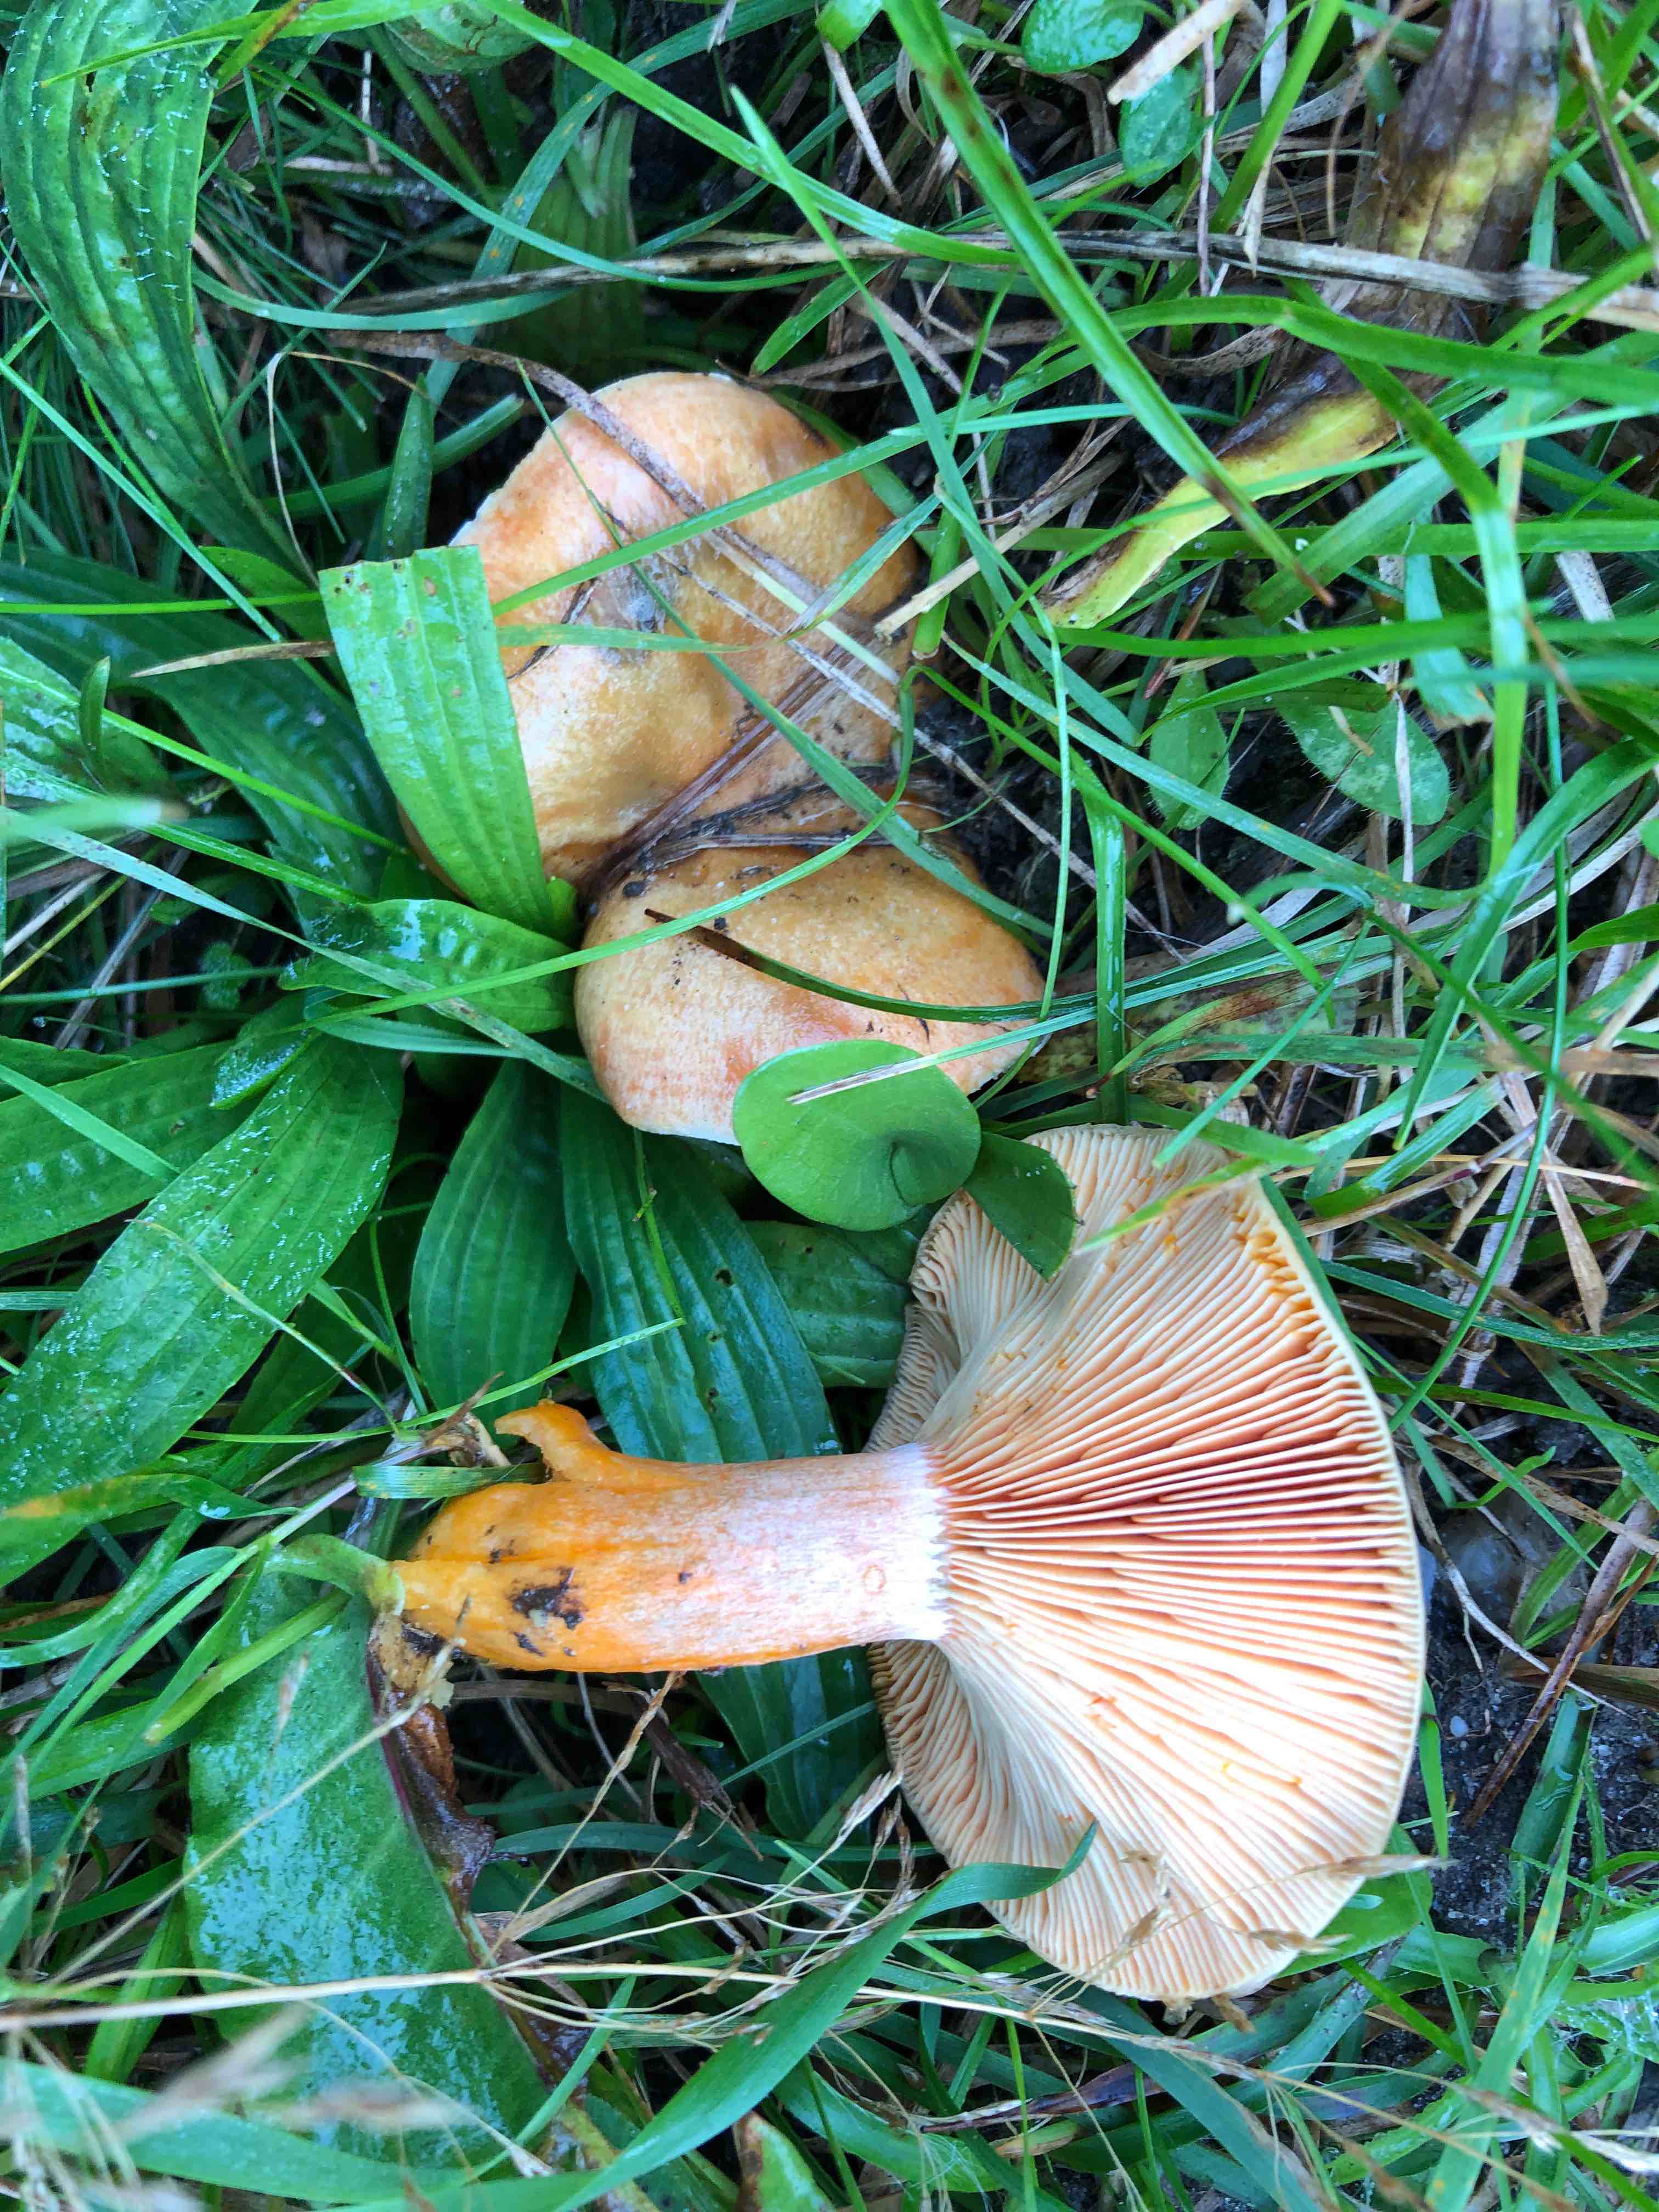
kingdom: Fungi
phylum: Basidiomycota
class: Agaricomycetes
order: Russulales
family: Russulaceae
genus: Lactarius
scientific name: Lactarius deterrimus
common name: gran-mælkehat
